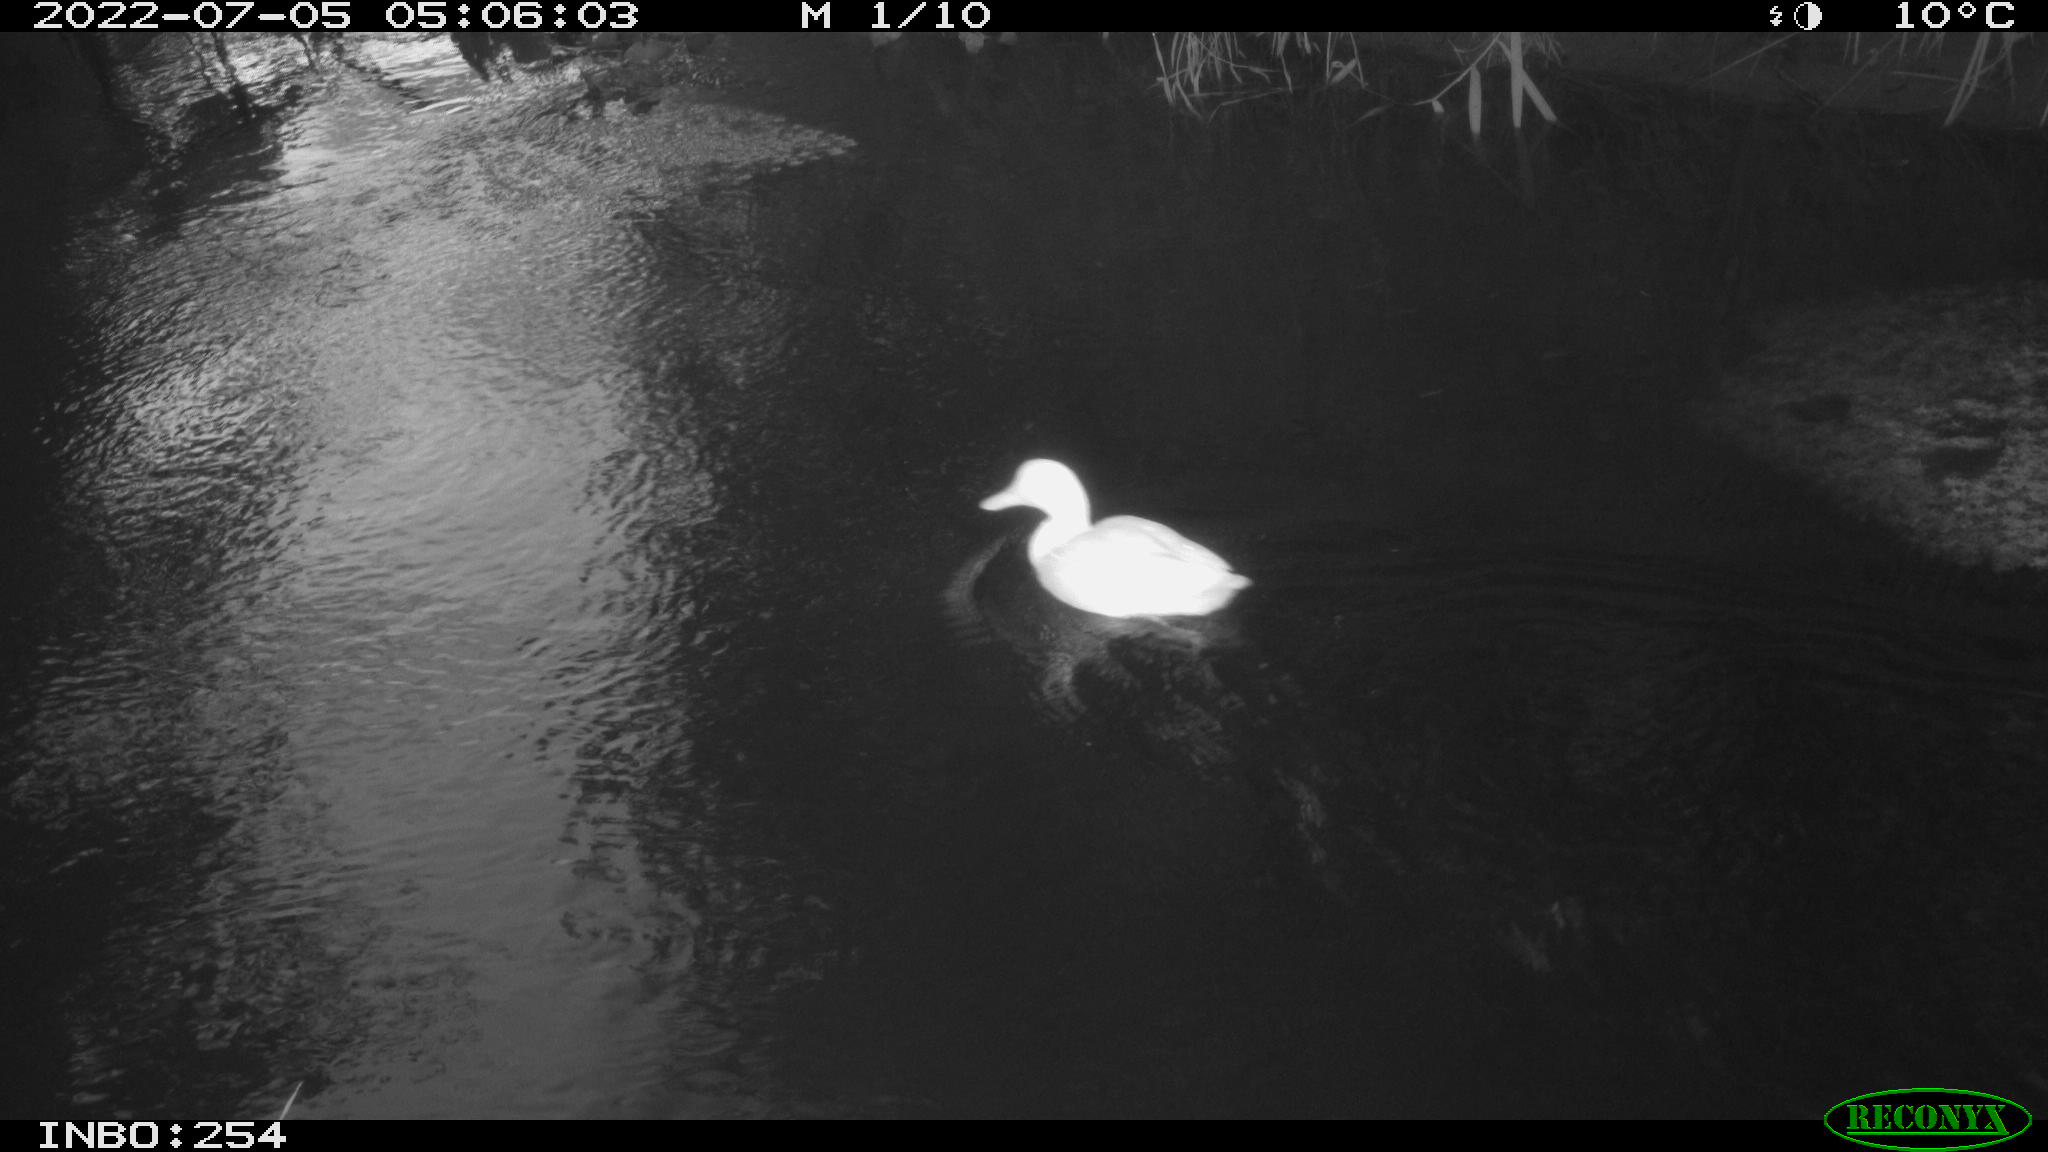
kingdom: Animalia
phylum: Chordata
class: Aves
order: Anseriformes
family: Anatidae
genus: Anas
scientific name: Anas platyrhynchos
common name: Mallard
